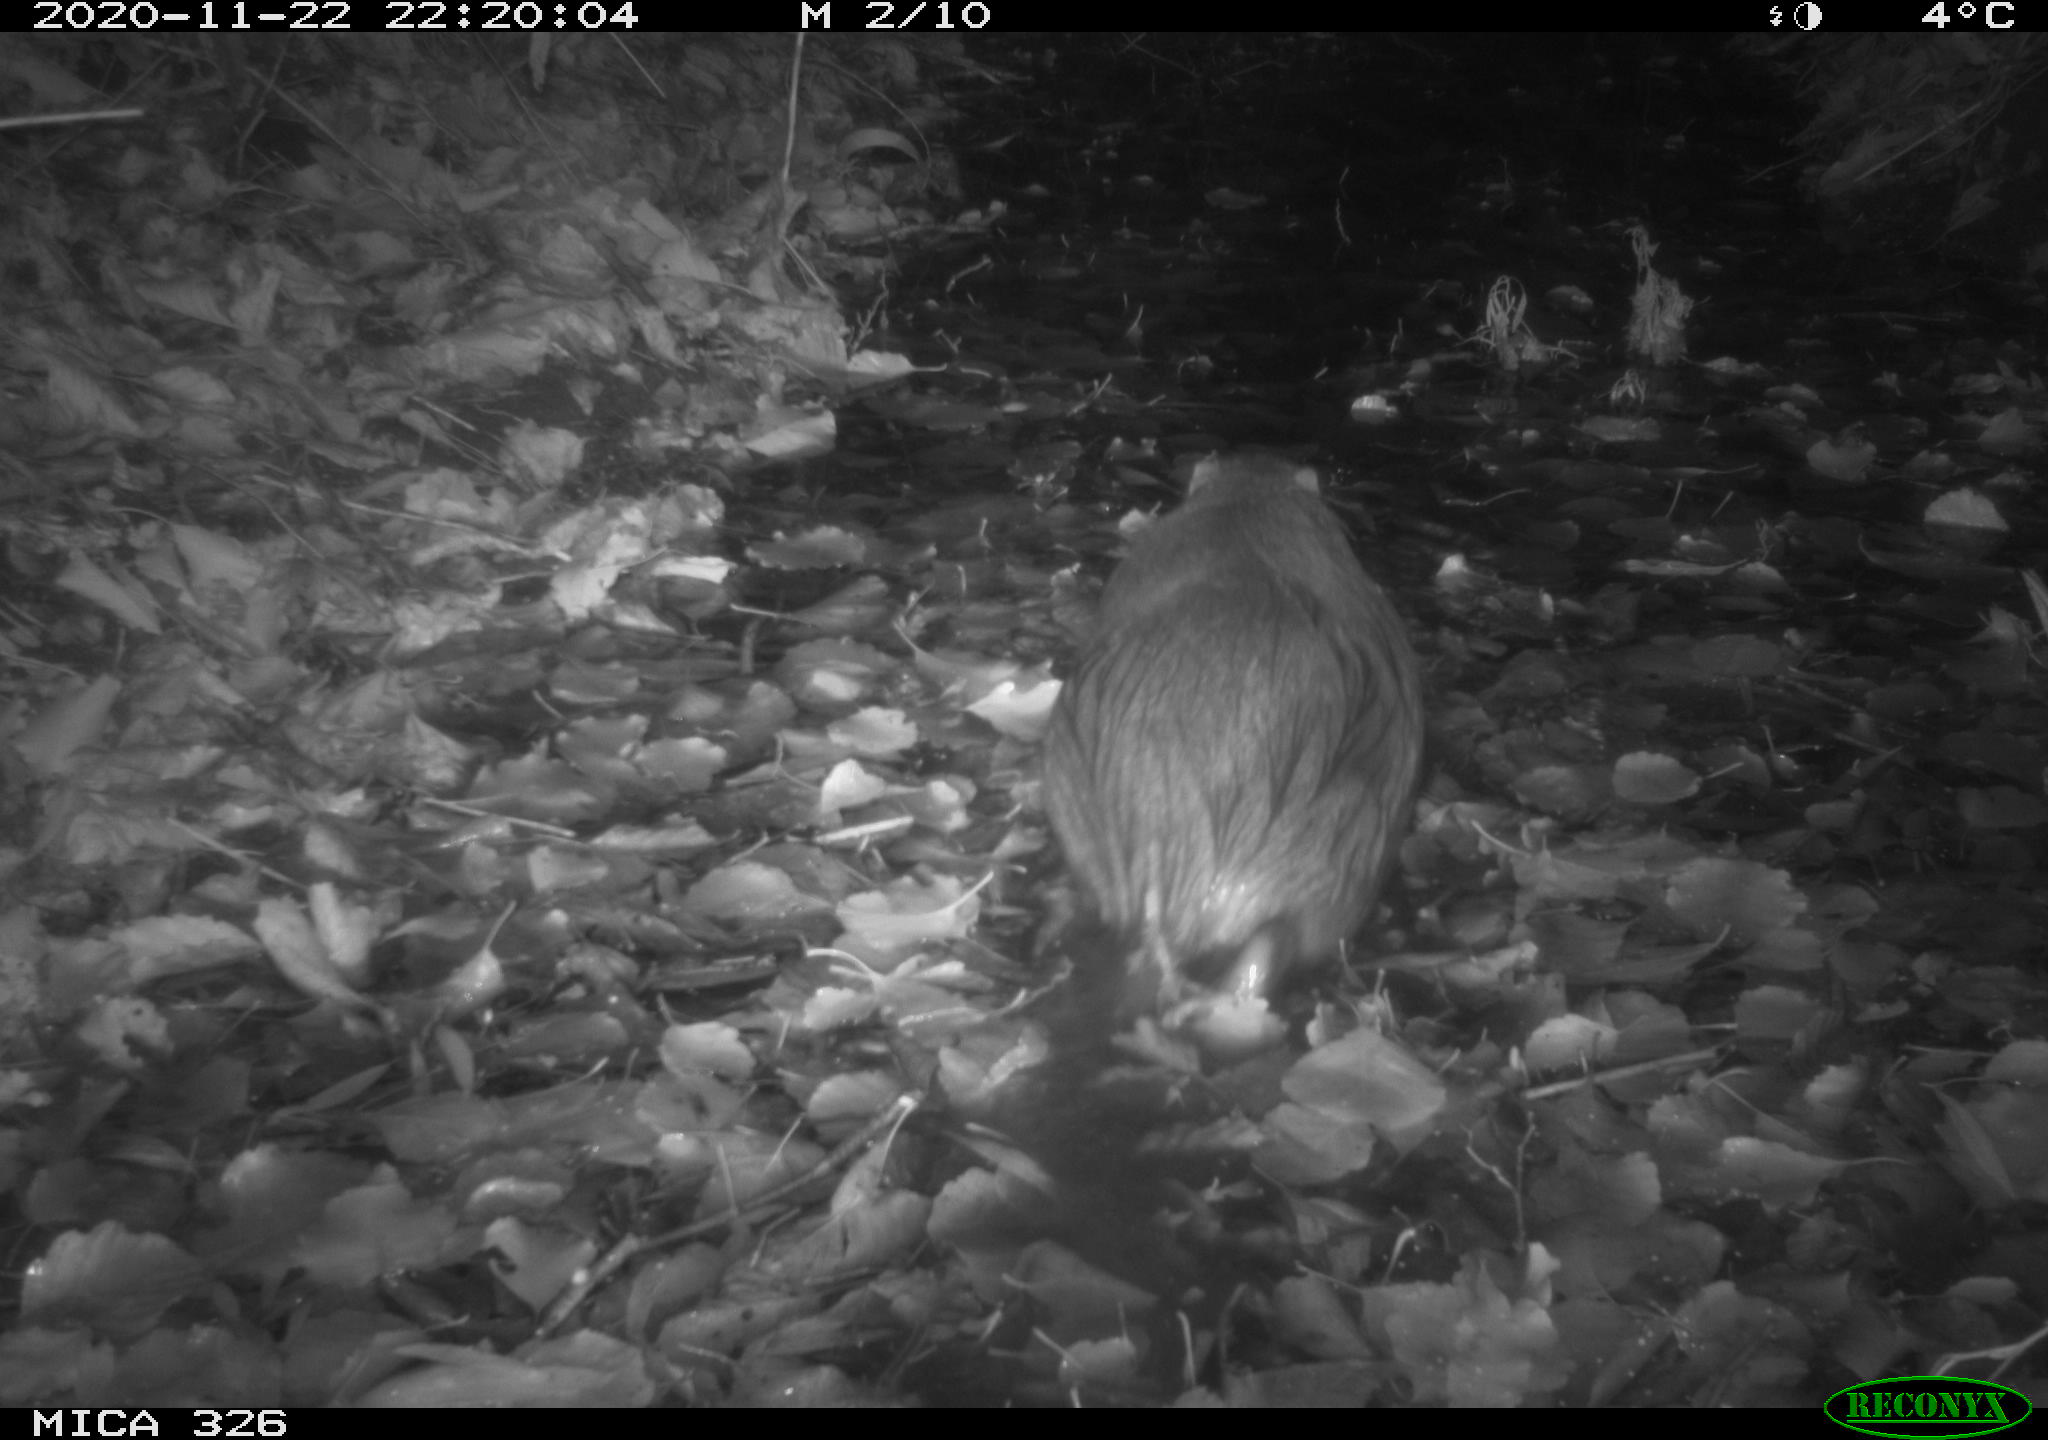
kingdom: Animalia
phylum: Chordata
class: Mammalia
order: Rodentia
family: Myocastoridae
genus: Myocastor
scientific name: Myocastor coypus
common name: Coypu
